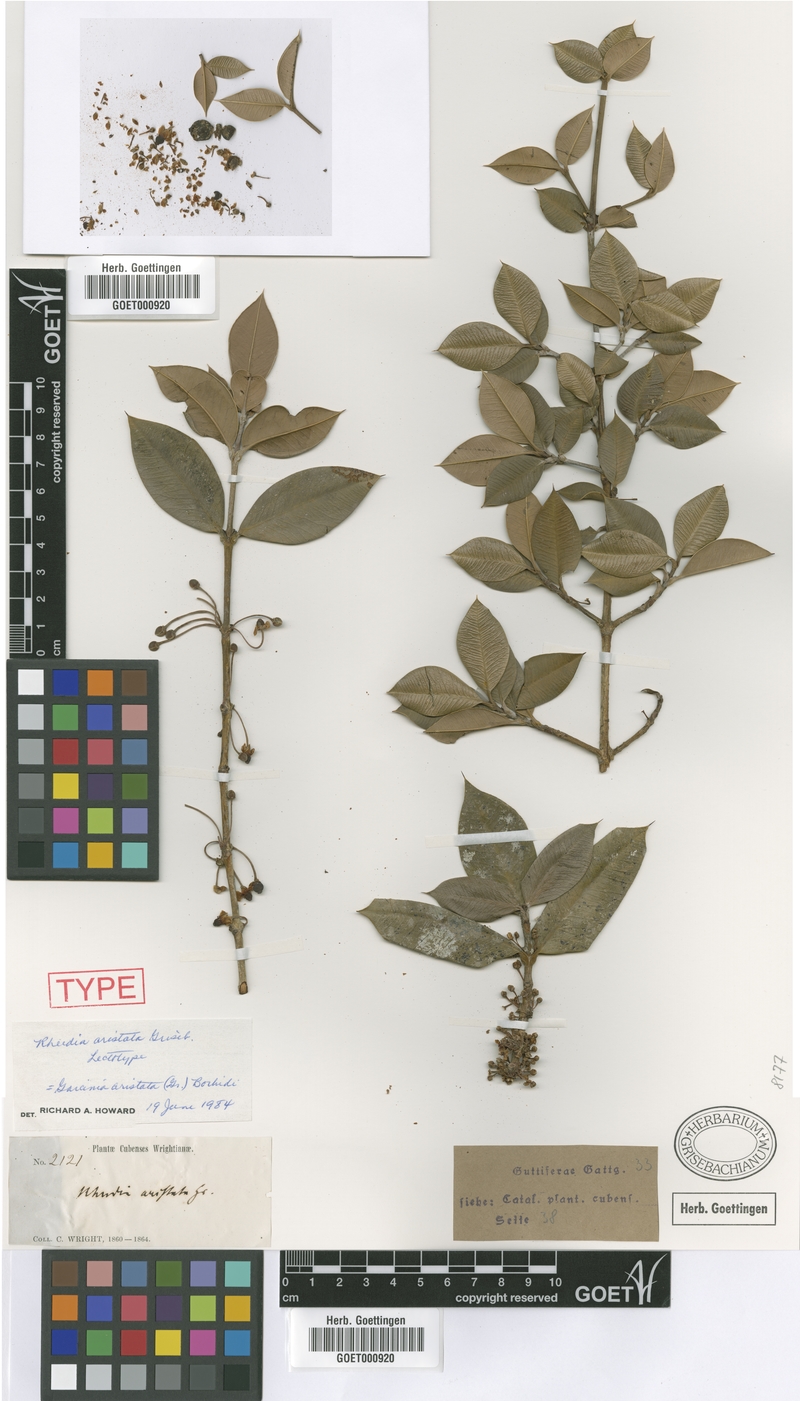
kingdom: Plantae
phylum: Tracheophyta
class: Magnoliopsida
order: Malpighiales
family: Clusiaceae
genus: Garcinia
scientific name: Garcinia aristata
